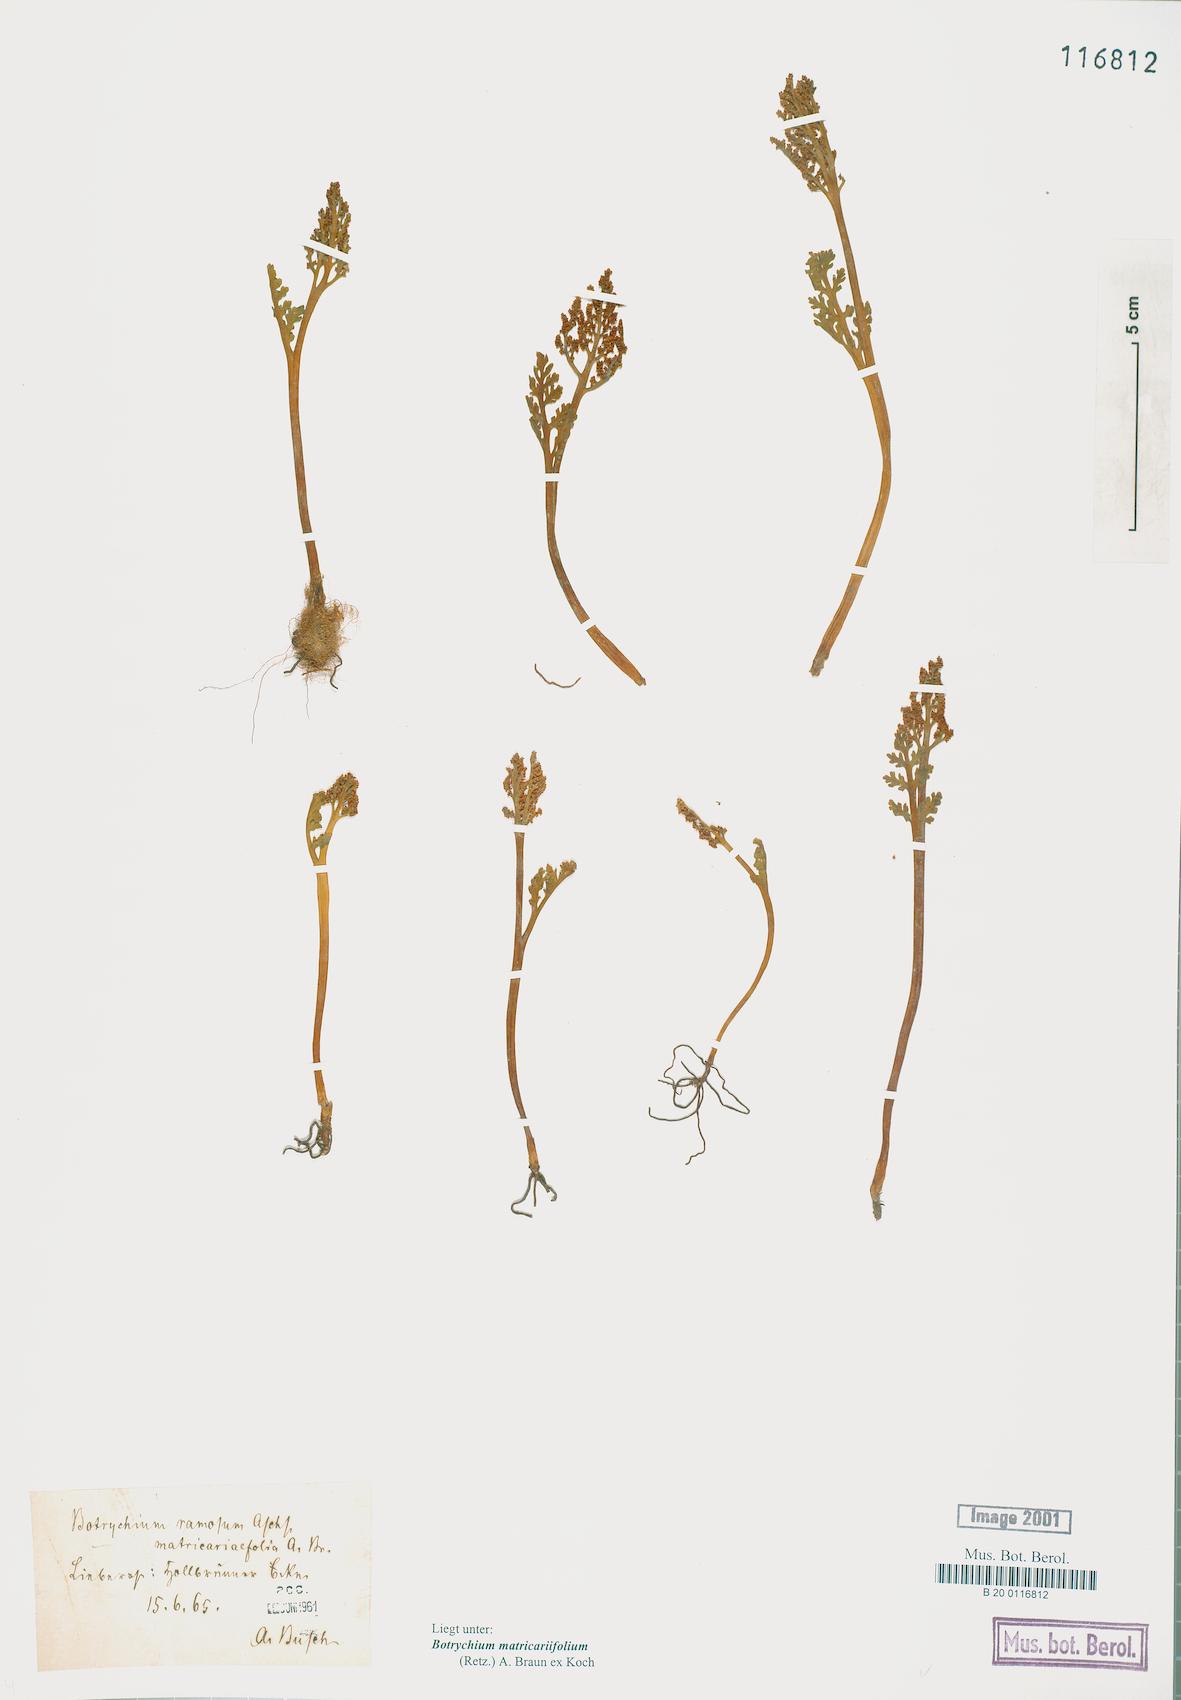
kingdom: Plantae
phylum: Tracheophyta
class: Polypodiopsida
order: Ophioglossales
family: Ophioglossaceae
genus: Botrychium
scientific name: Botrychium matricariifolium
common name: Branched moonwort
